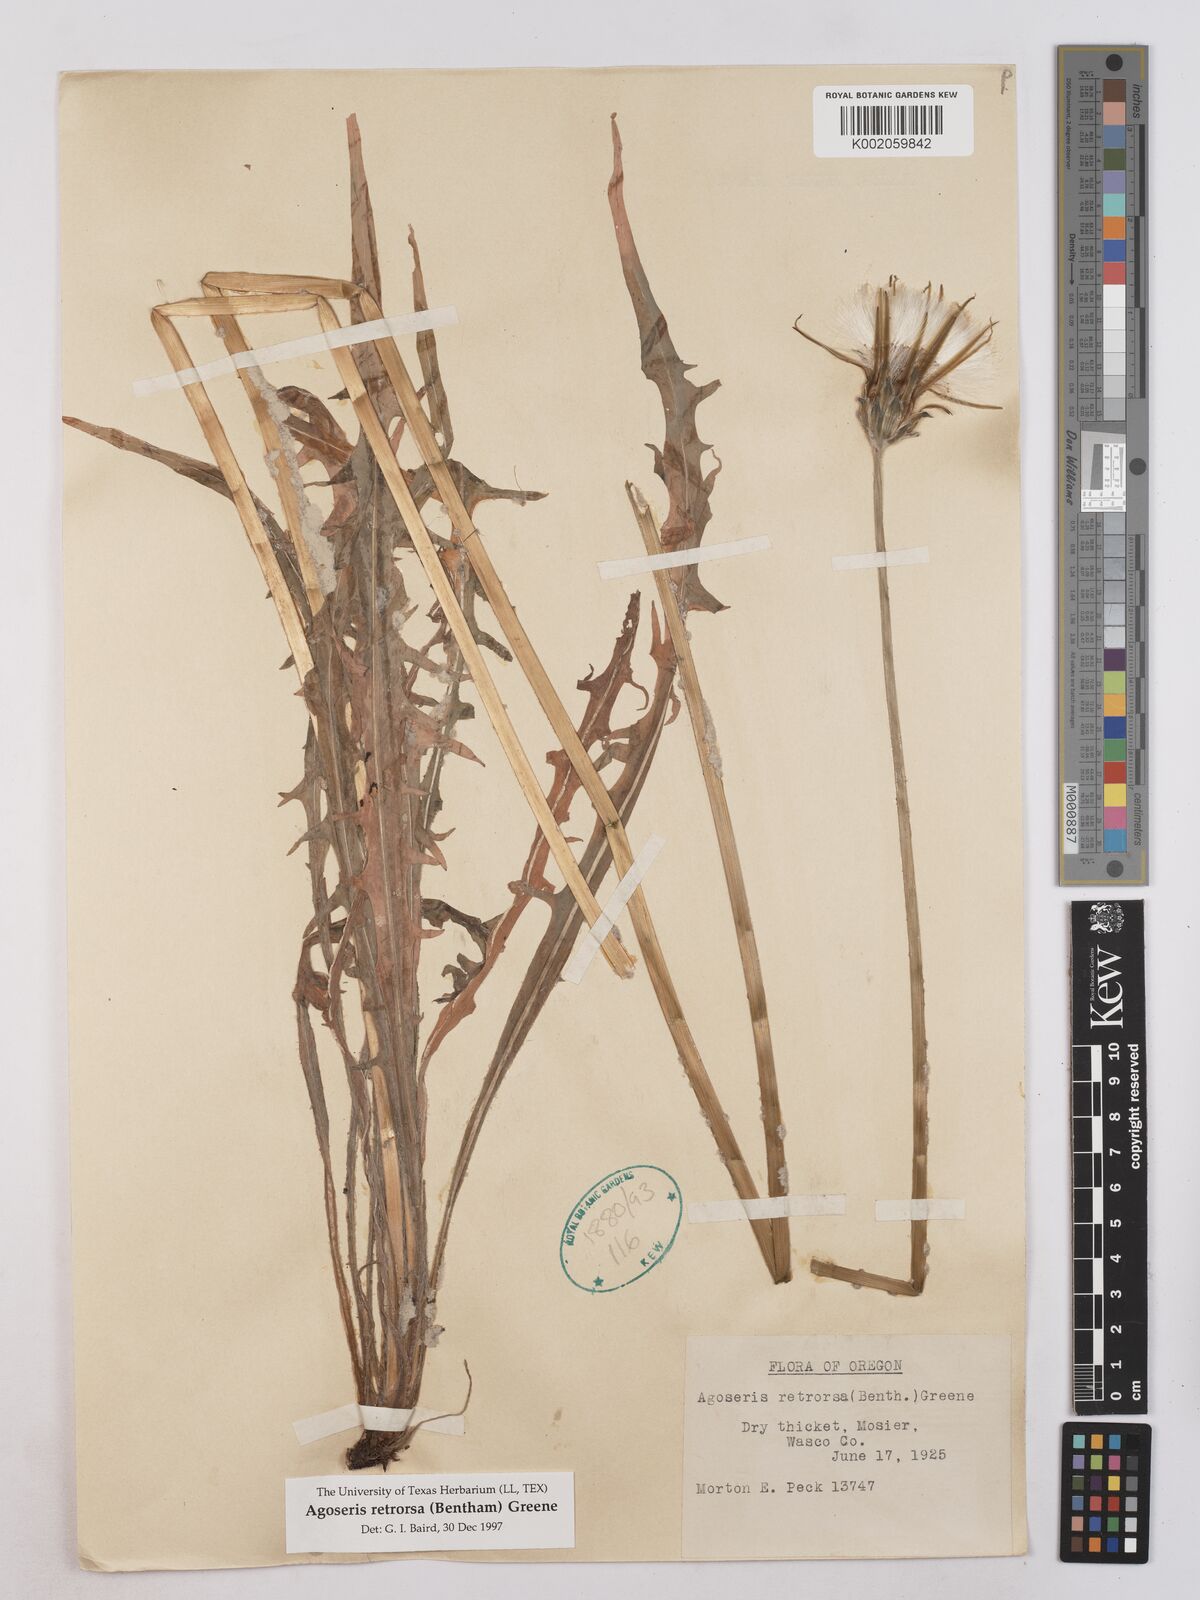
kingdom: Plantae
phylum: Tracheophyta
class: Magnoliopsida
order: Asterales
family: Asteraceae
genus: Agoseris
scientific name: Agoseris retrorsa
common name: Spearleaf agoseris
